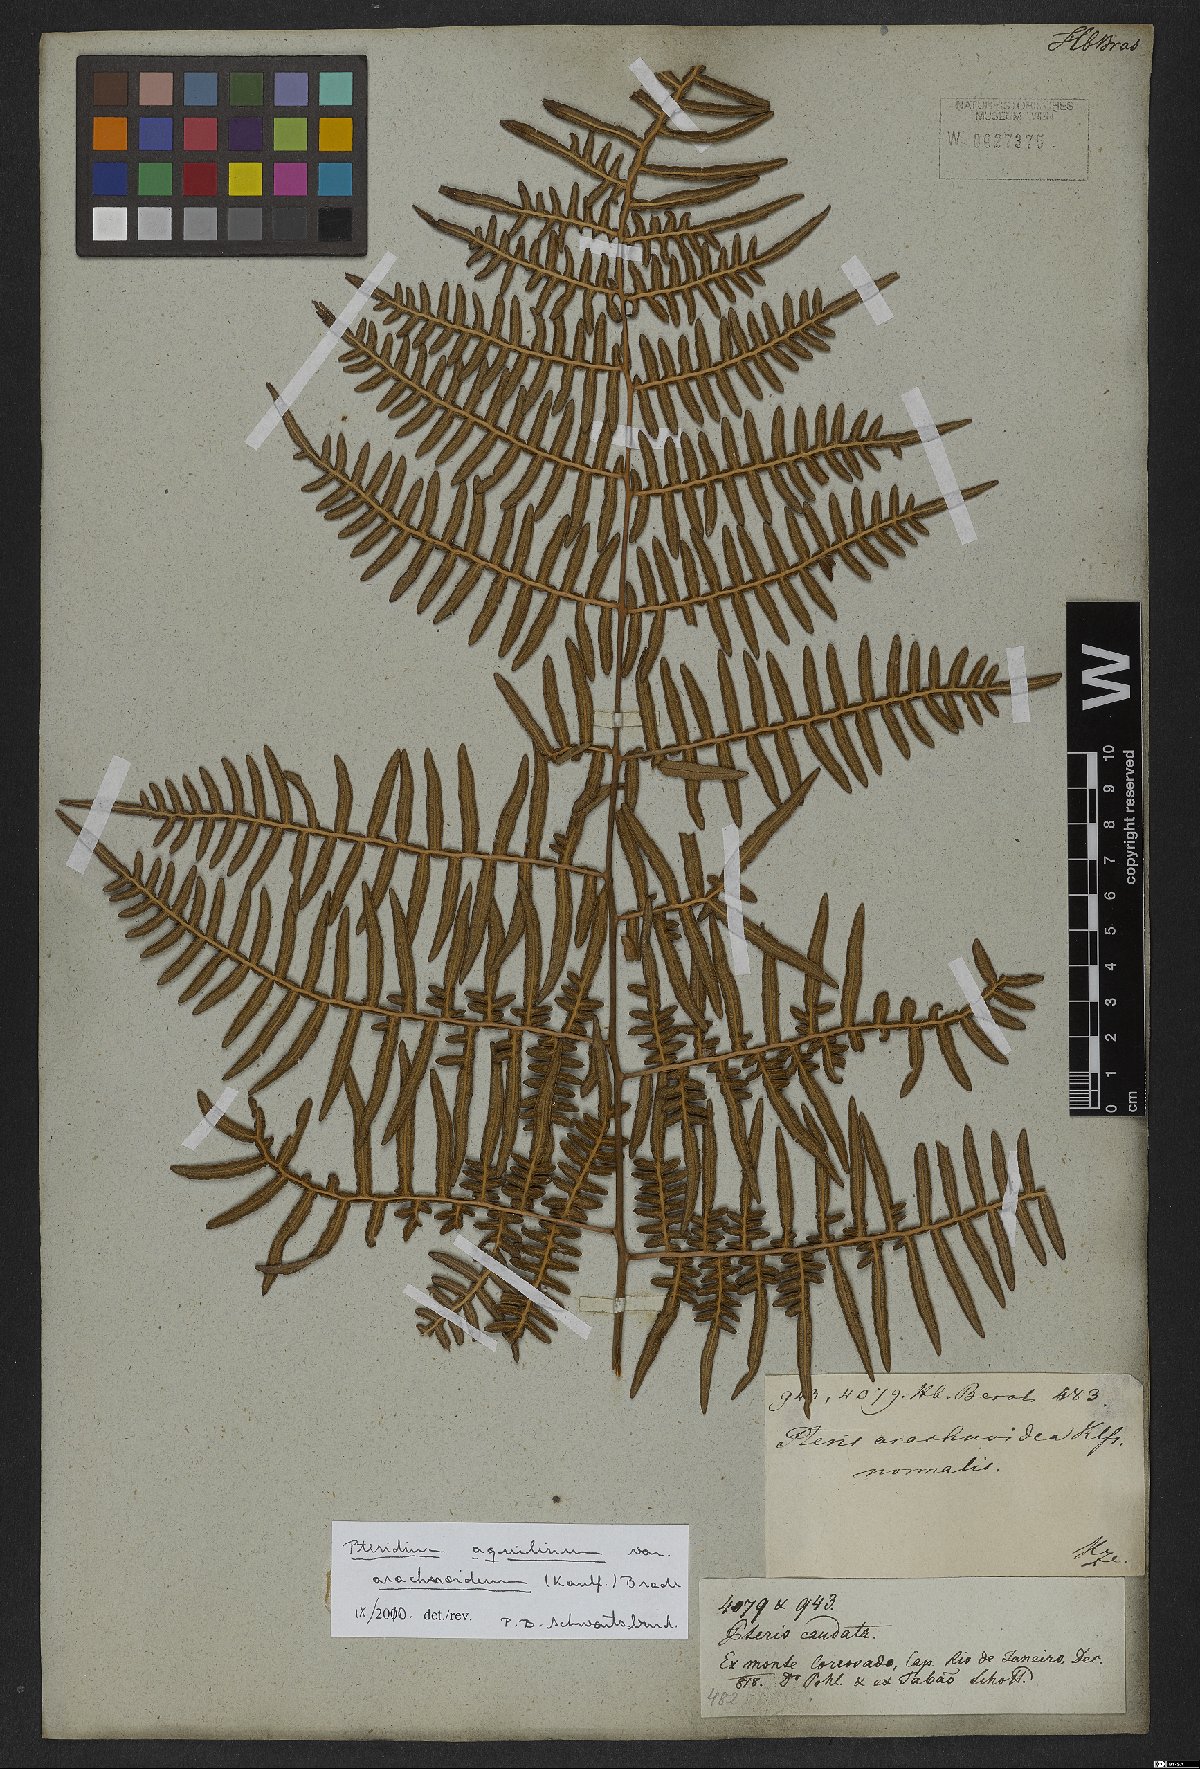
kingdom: Plantae
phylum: Tracheophyta
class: Polypodiopsida
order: Polypodiales
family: Dennstaedtiaceae
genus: Pteridium
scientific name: Pteridium esculentum
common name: Bracken fern
